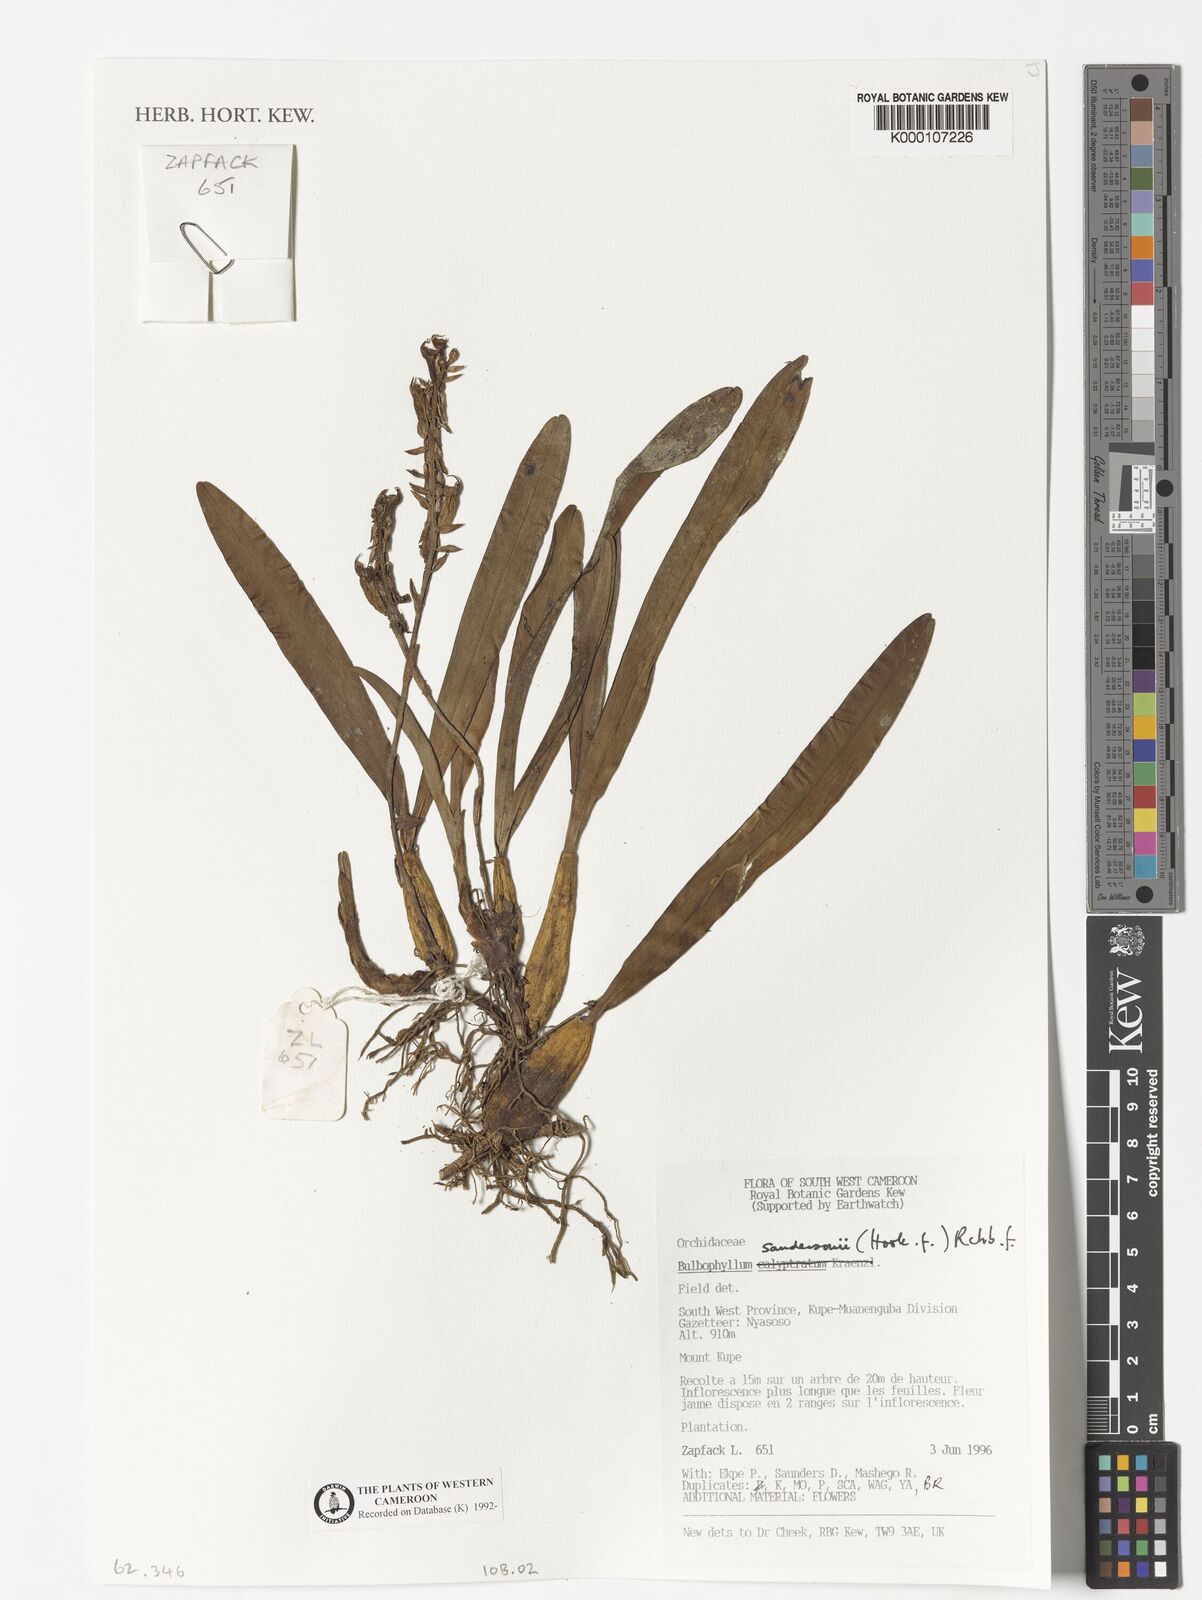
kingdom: Plantae
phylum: Tracheophyta
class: Liliopsida
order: Asparagales
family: Orchidaceae
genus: Bulbophyllum
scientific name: Bulbophyllum sandersonii
